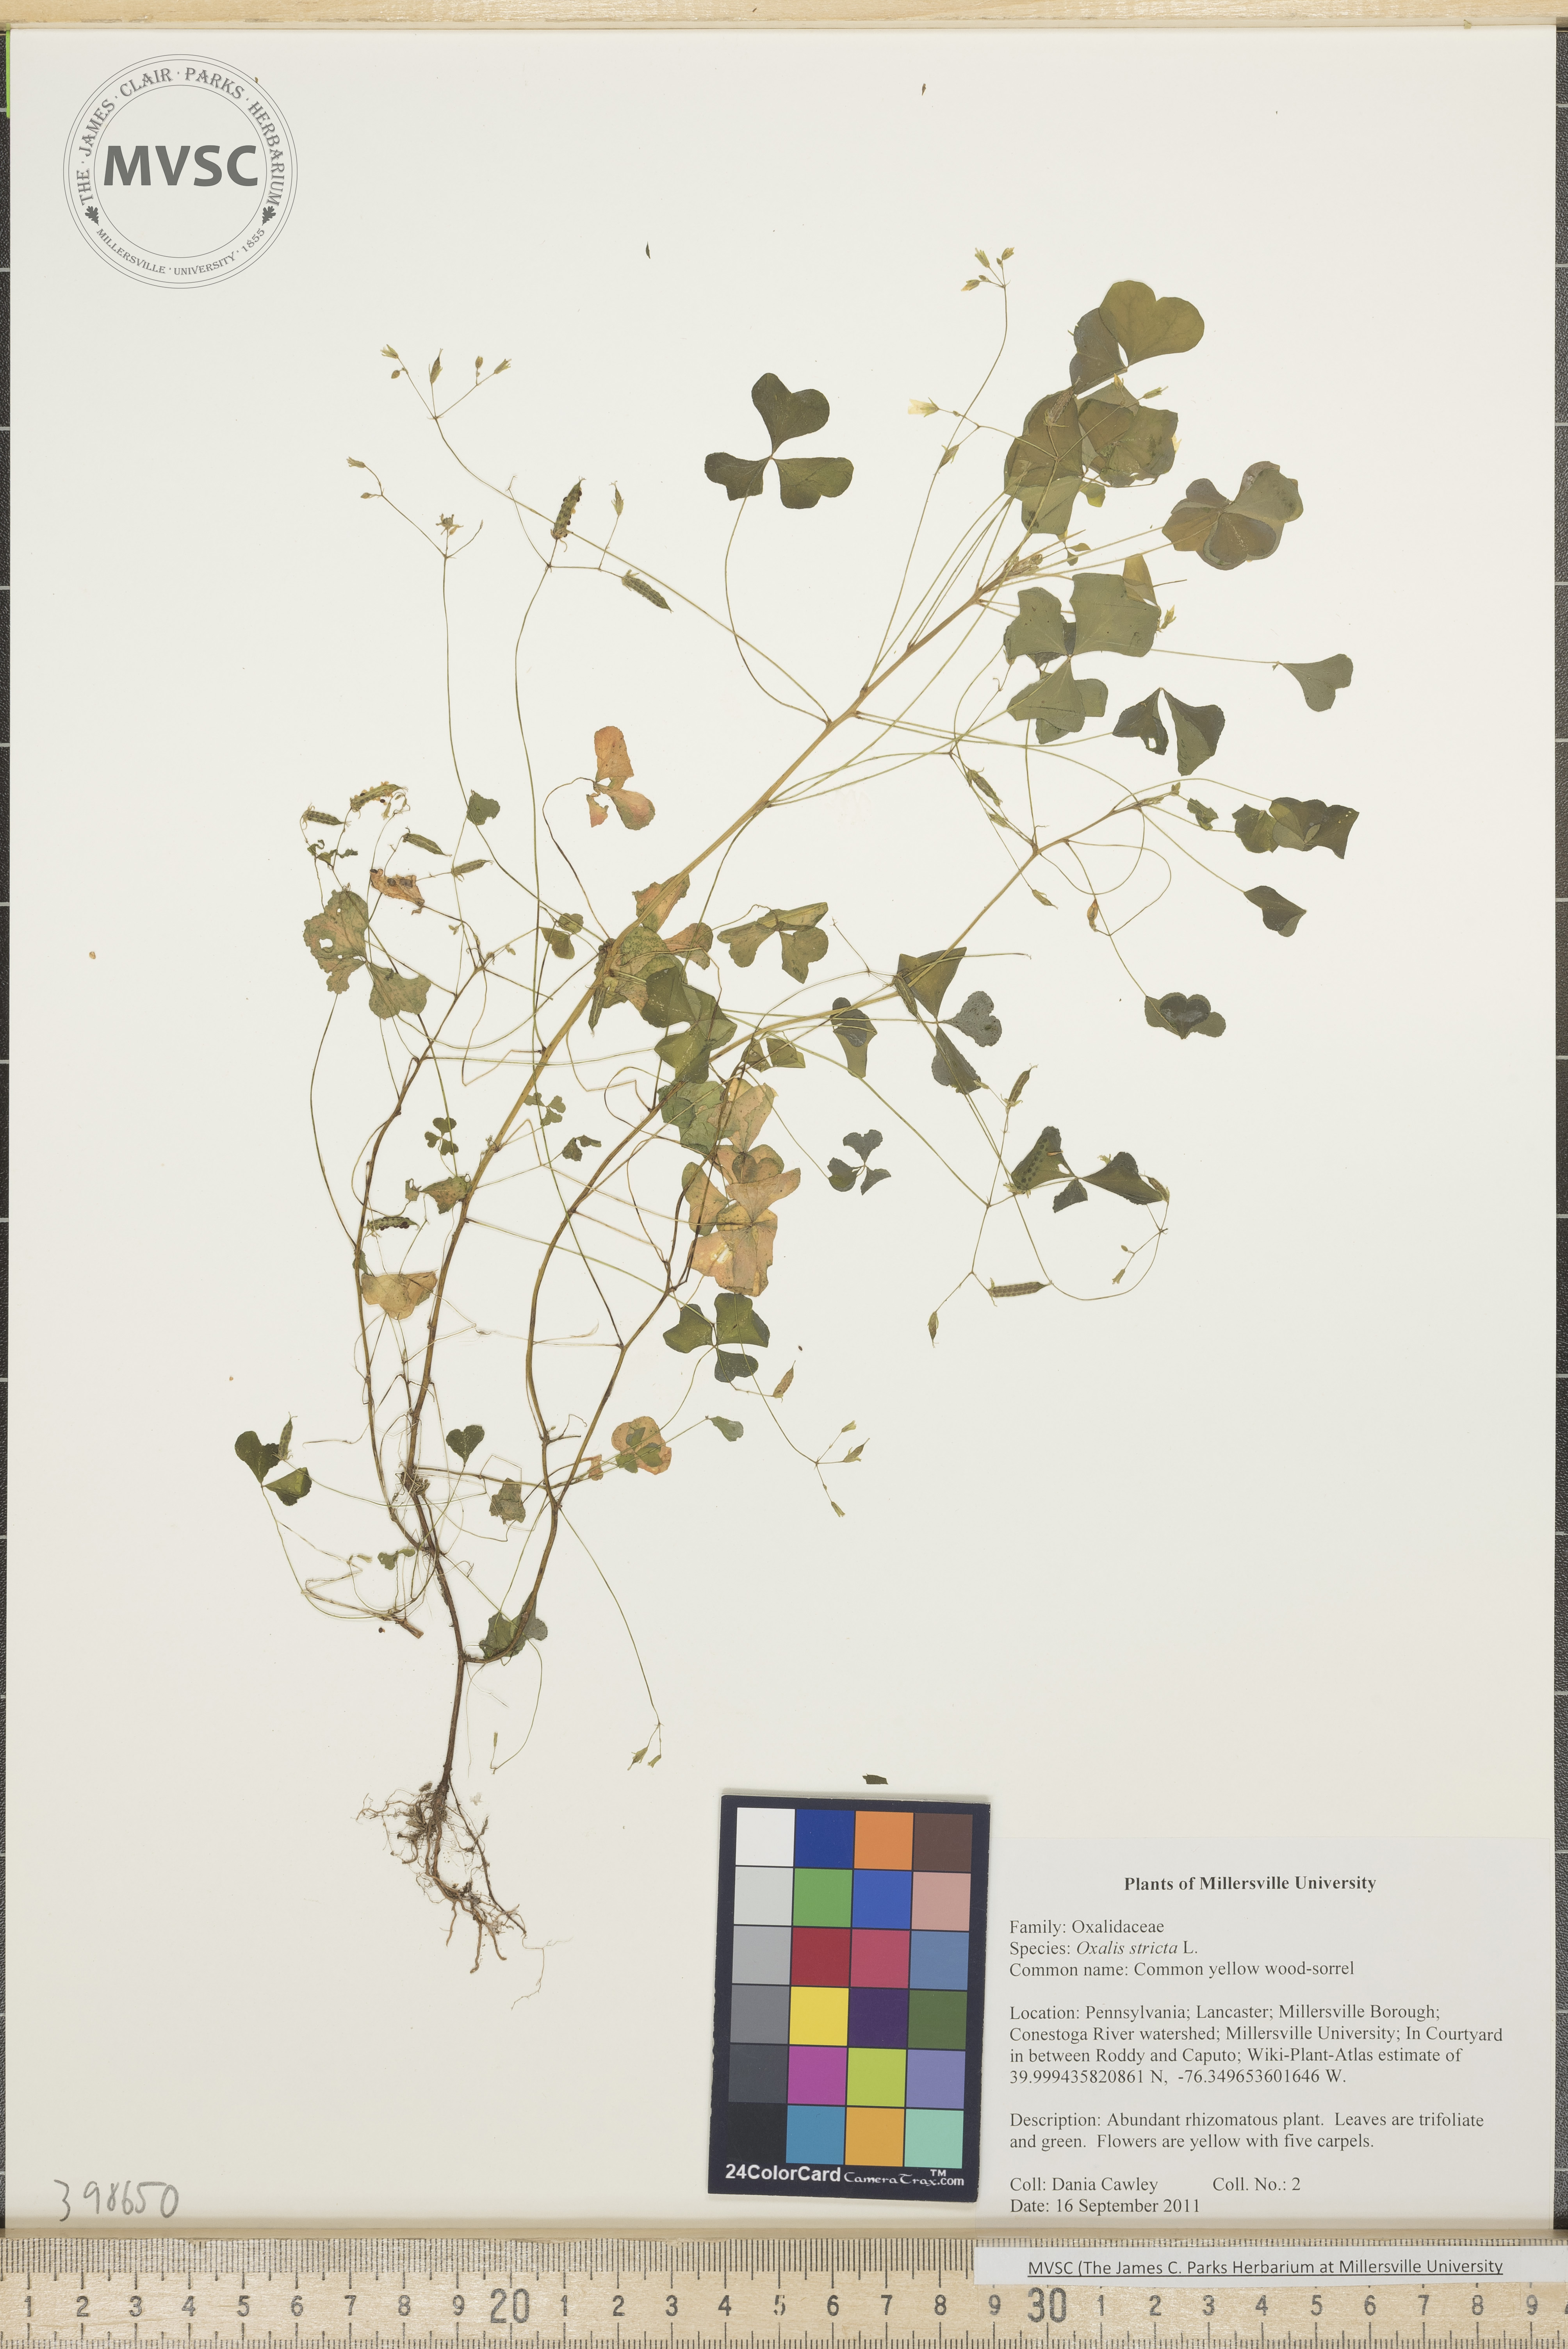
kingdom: Plantae
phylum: Tracheophyta
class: Magnoliopsida
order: Oxalidales
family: Oxalidaceae
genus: Oxalis
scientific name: Oxalis stricta
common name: Common yellow wood-sorrel
